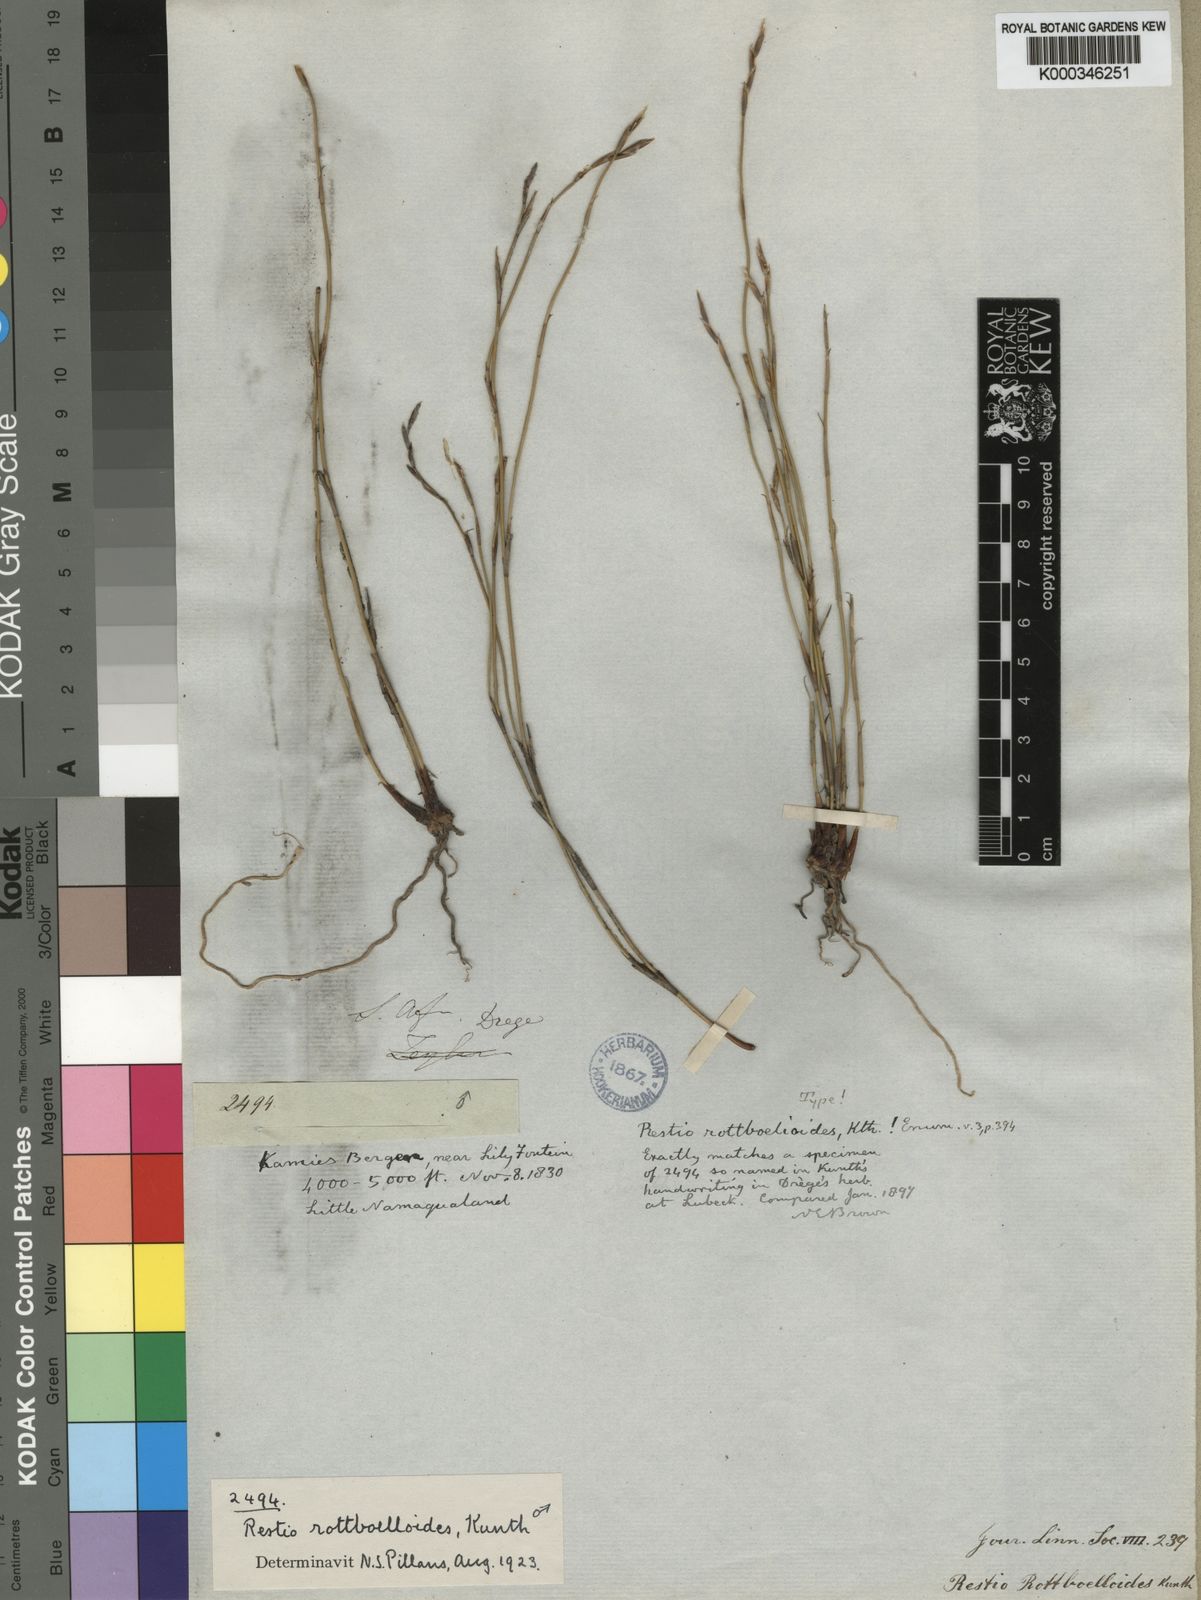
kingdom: Plantae
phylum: Tracheophyta
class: Liliopsida
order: Poales
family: Restionaceae
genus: Restio
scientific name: Restio rottboellioides
